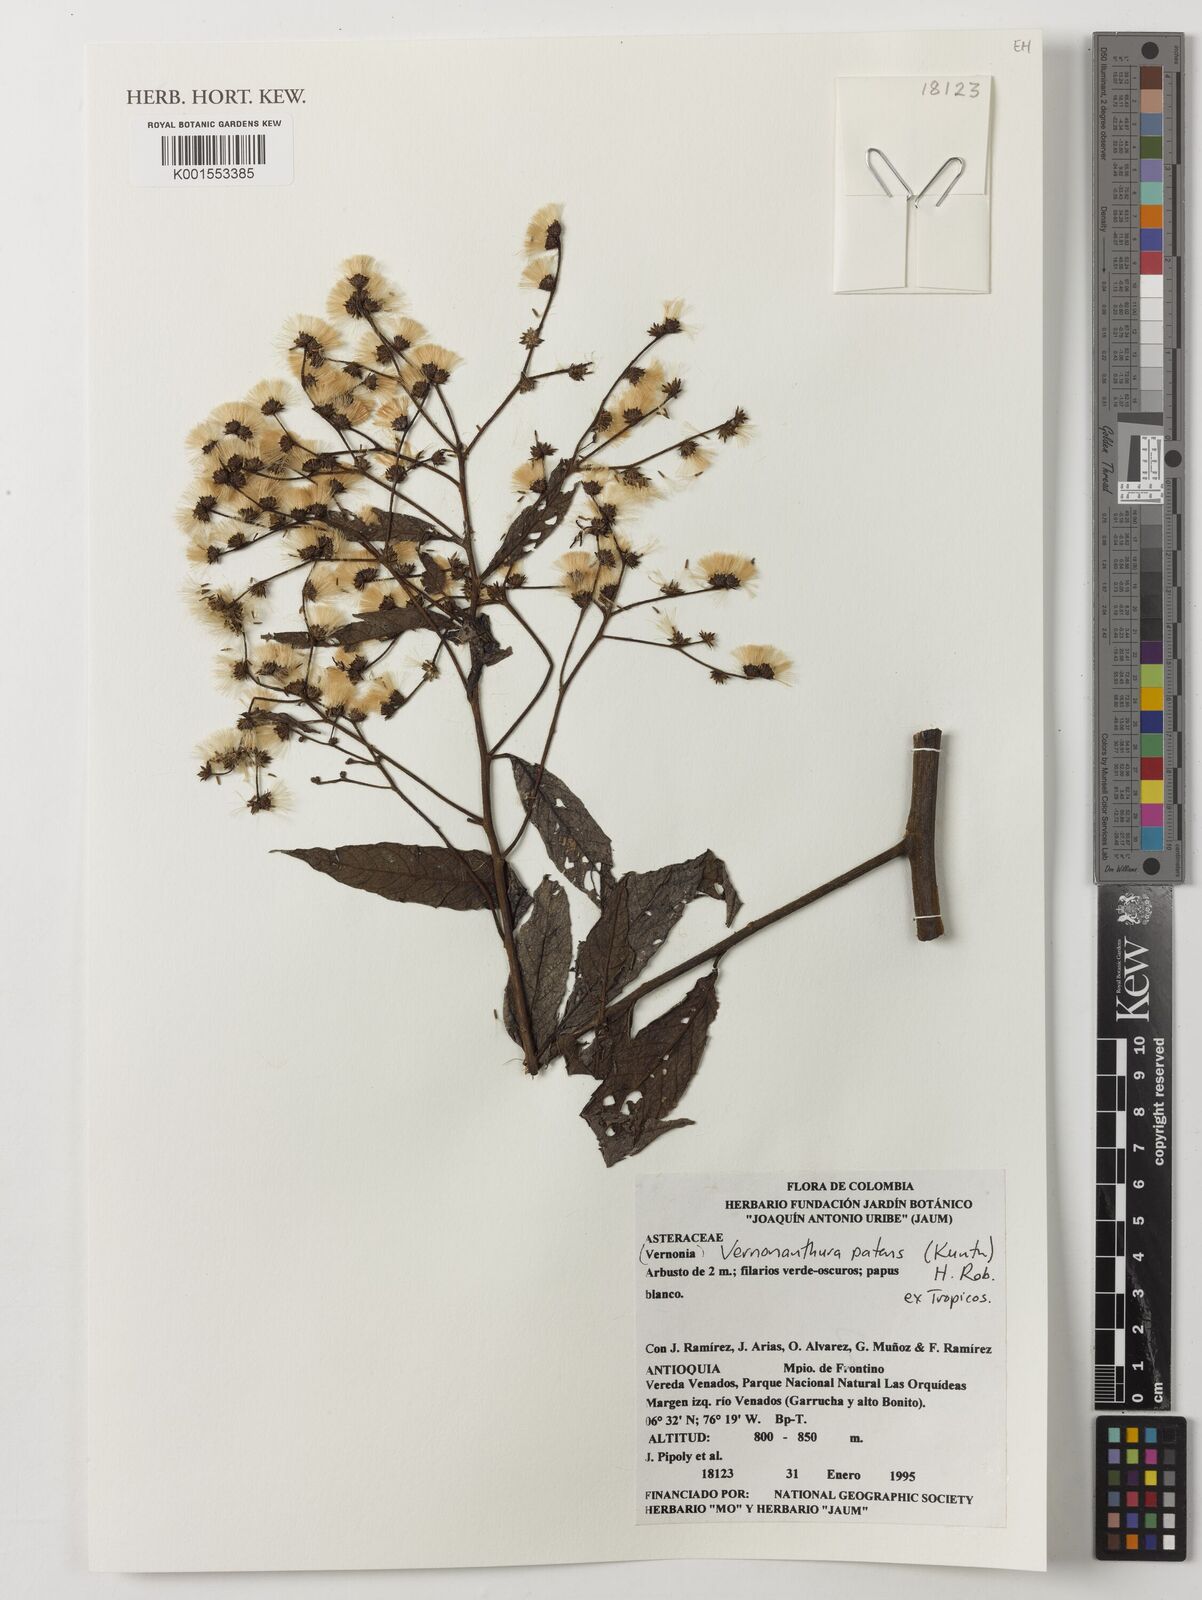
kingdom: Plantae
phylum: Tracheophyta
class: Magnoliopsida
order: Asterales
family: Asteraceae
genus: Vernonanthura
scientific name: Vernonanthura patens
